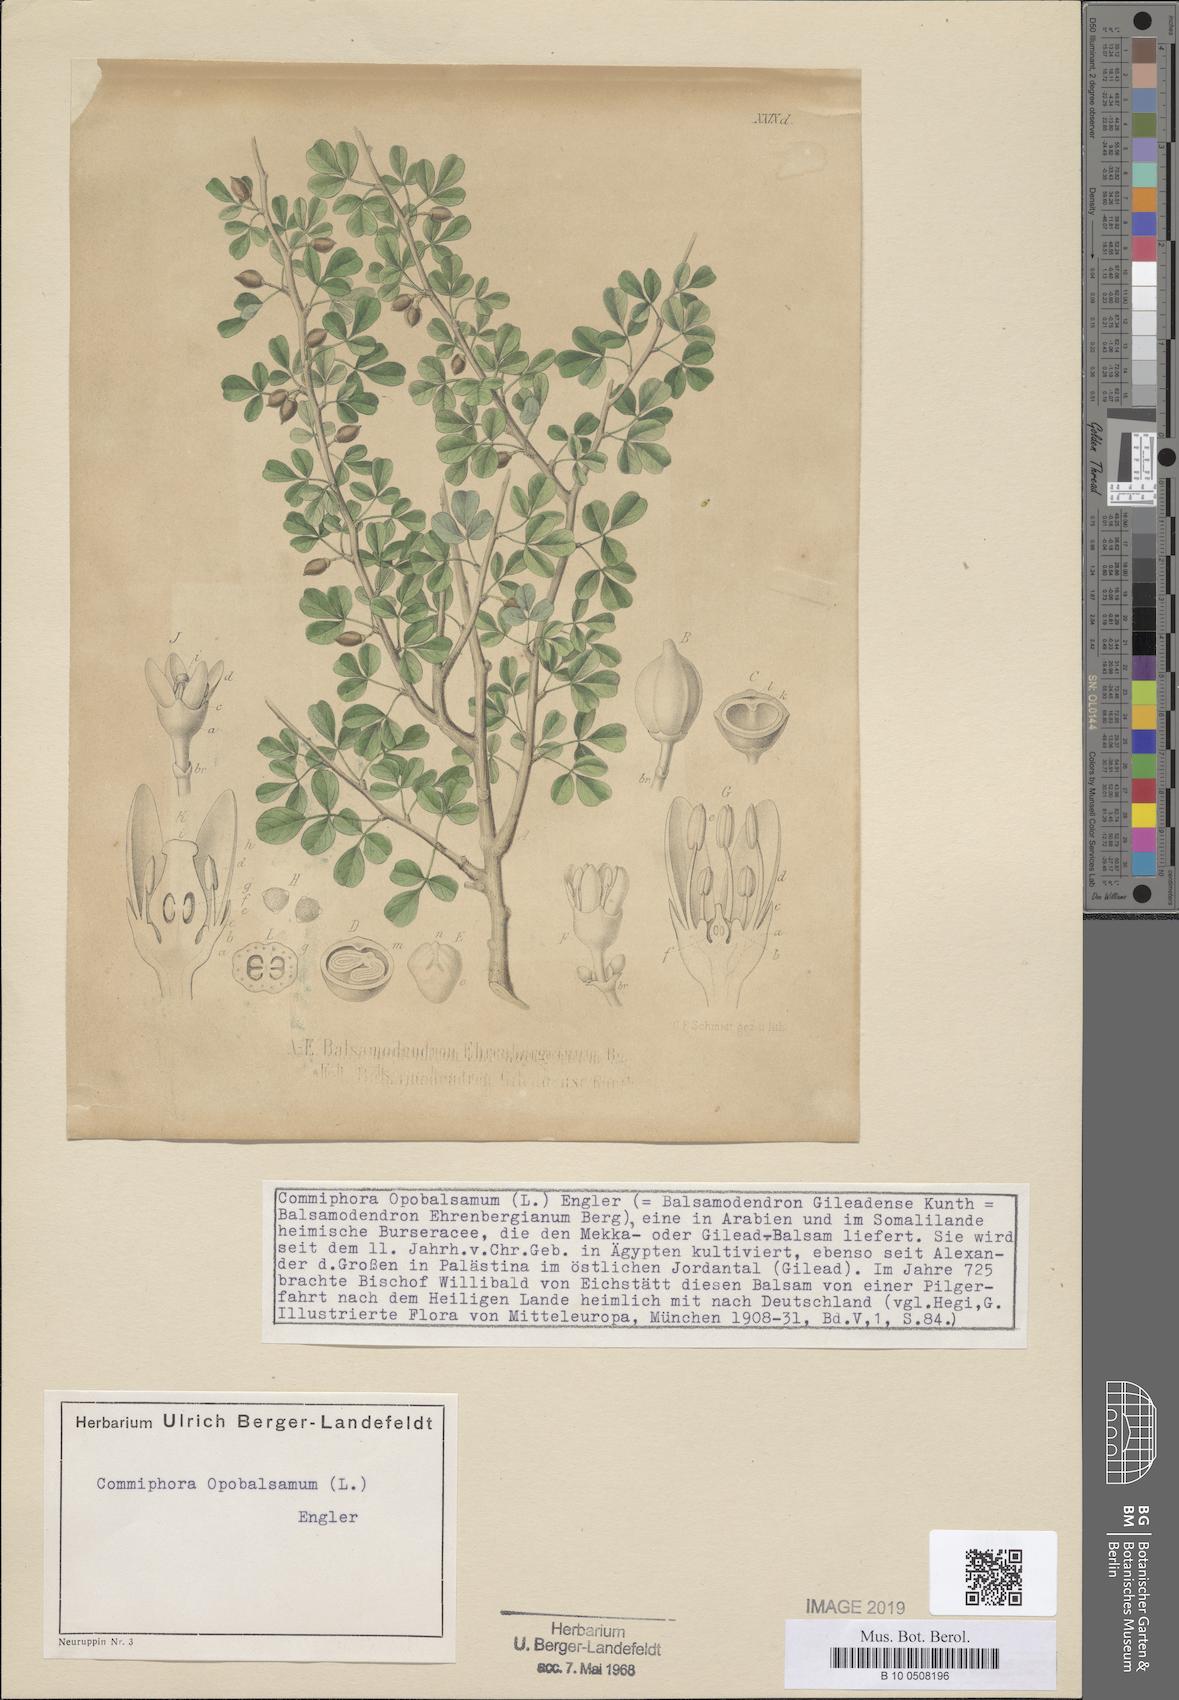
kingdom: Plantae
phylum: Tracheophyta
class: Magnoliopsida
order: Sapindales
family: Burseraceae
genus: Commiphora
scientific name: Commiphora gileadensis
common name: Balm-of-gilead
